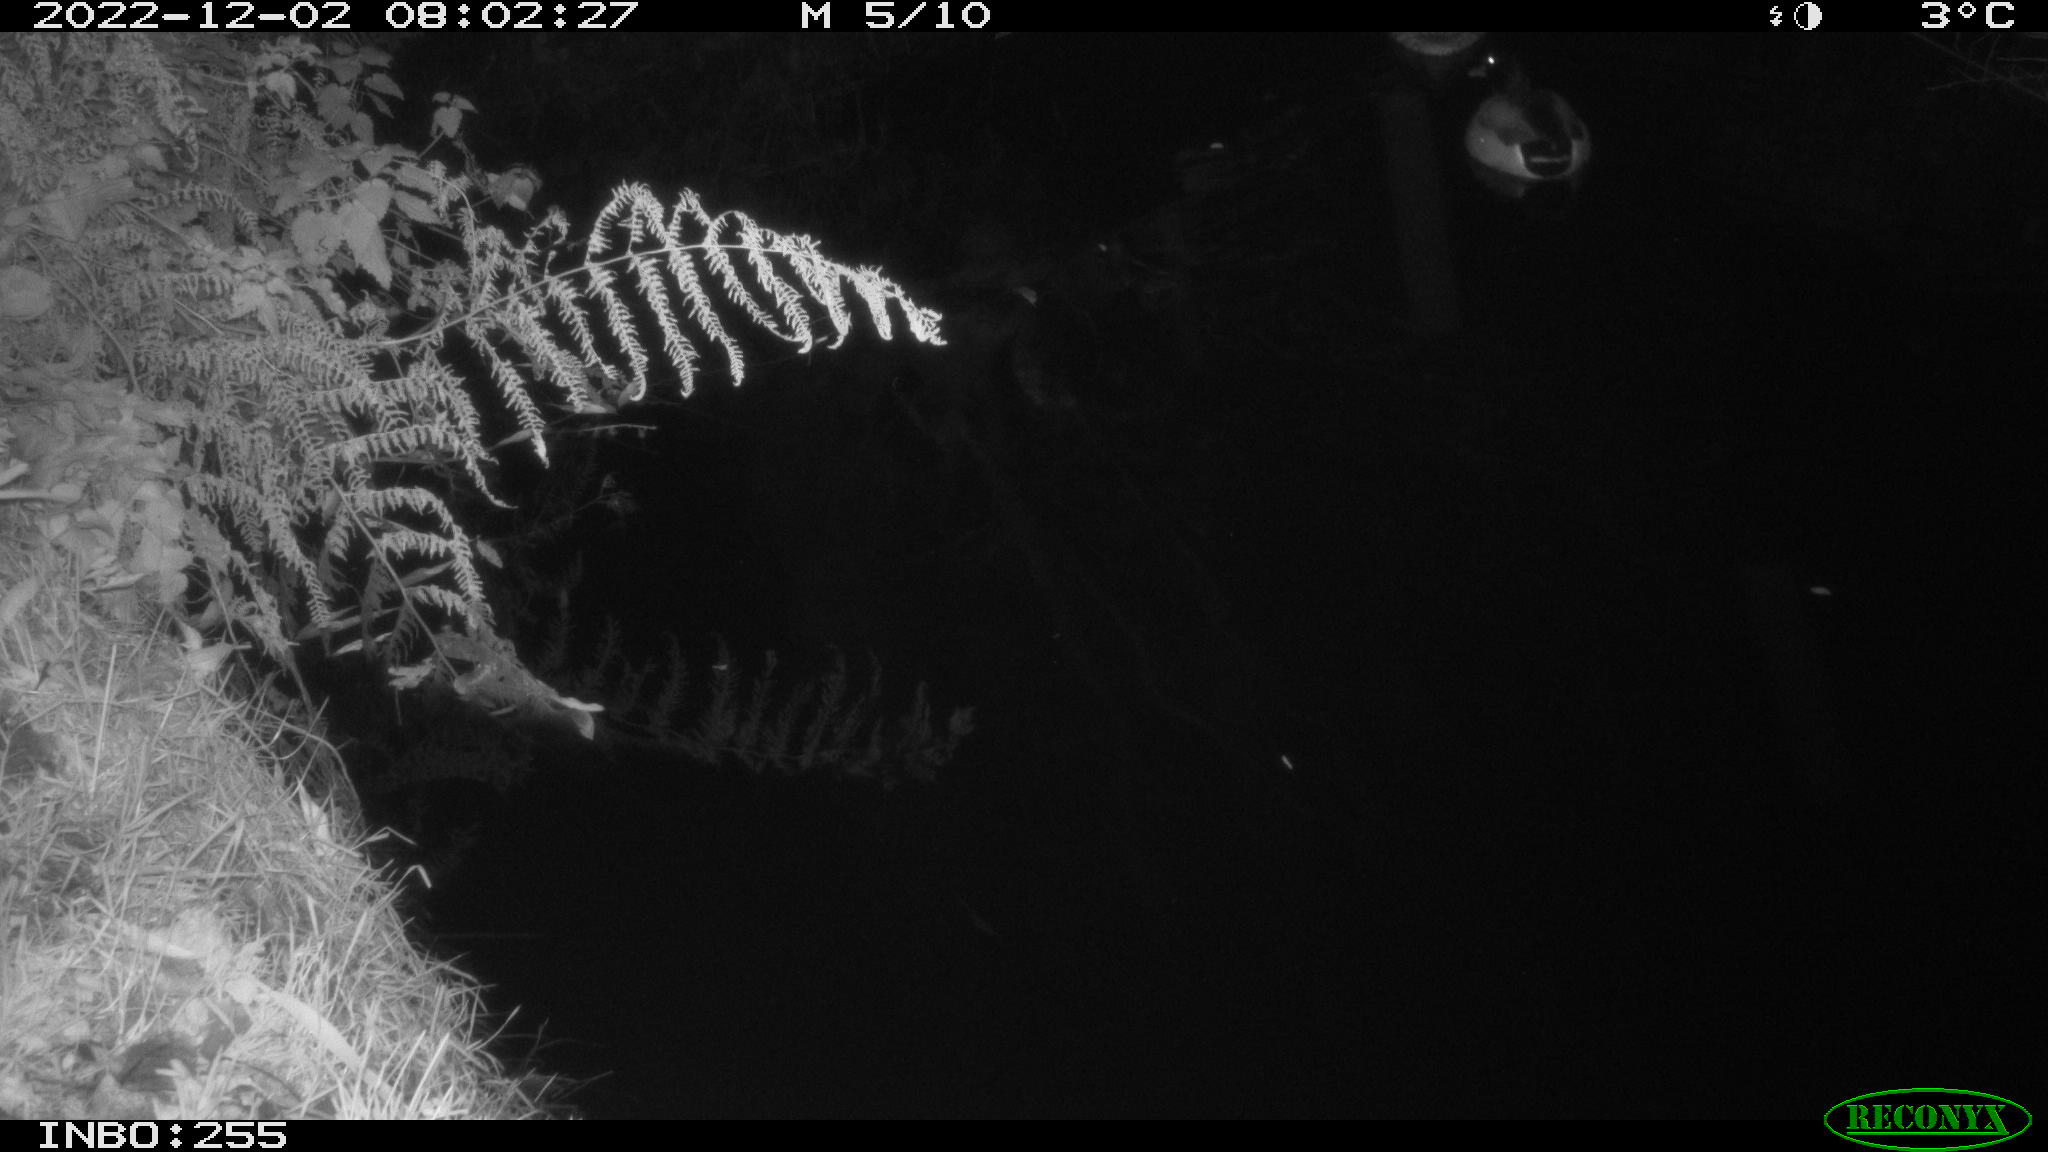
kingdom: Animalia
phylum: Chordata
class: Aves
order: Anseriformes
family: Anatidae
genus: Anas
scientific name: Anas
